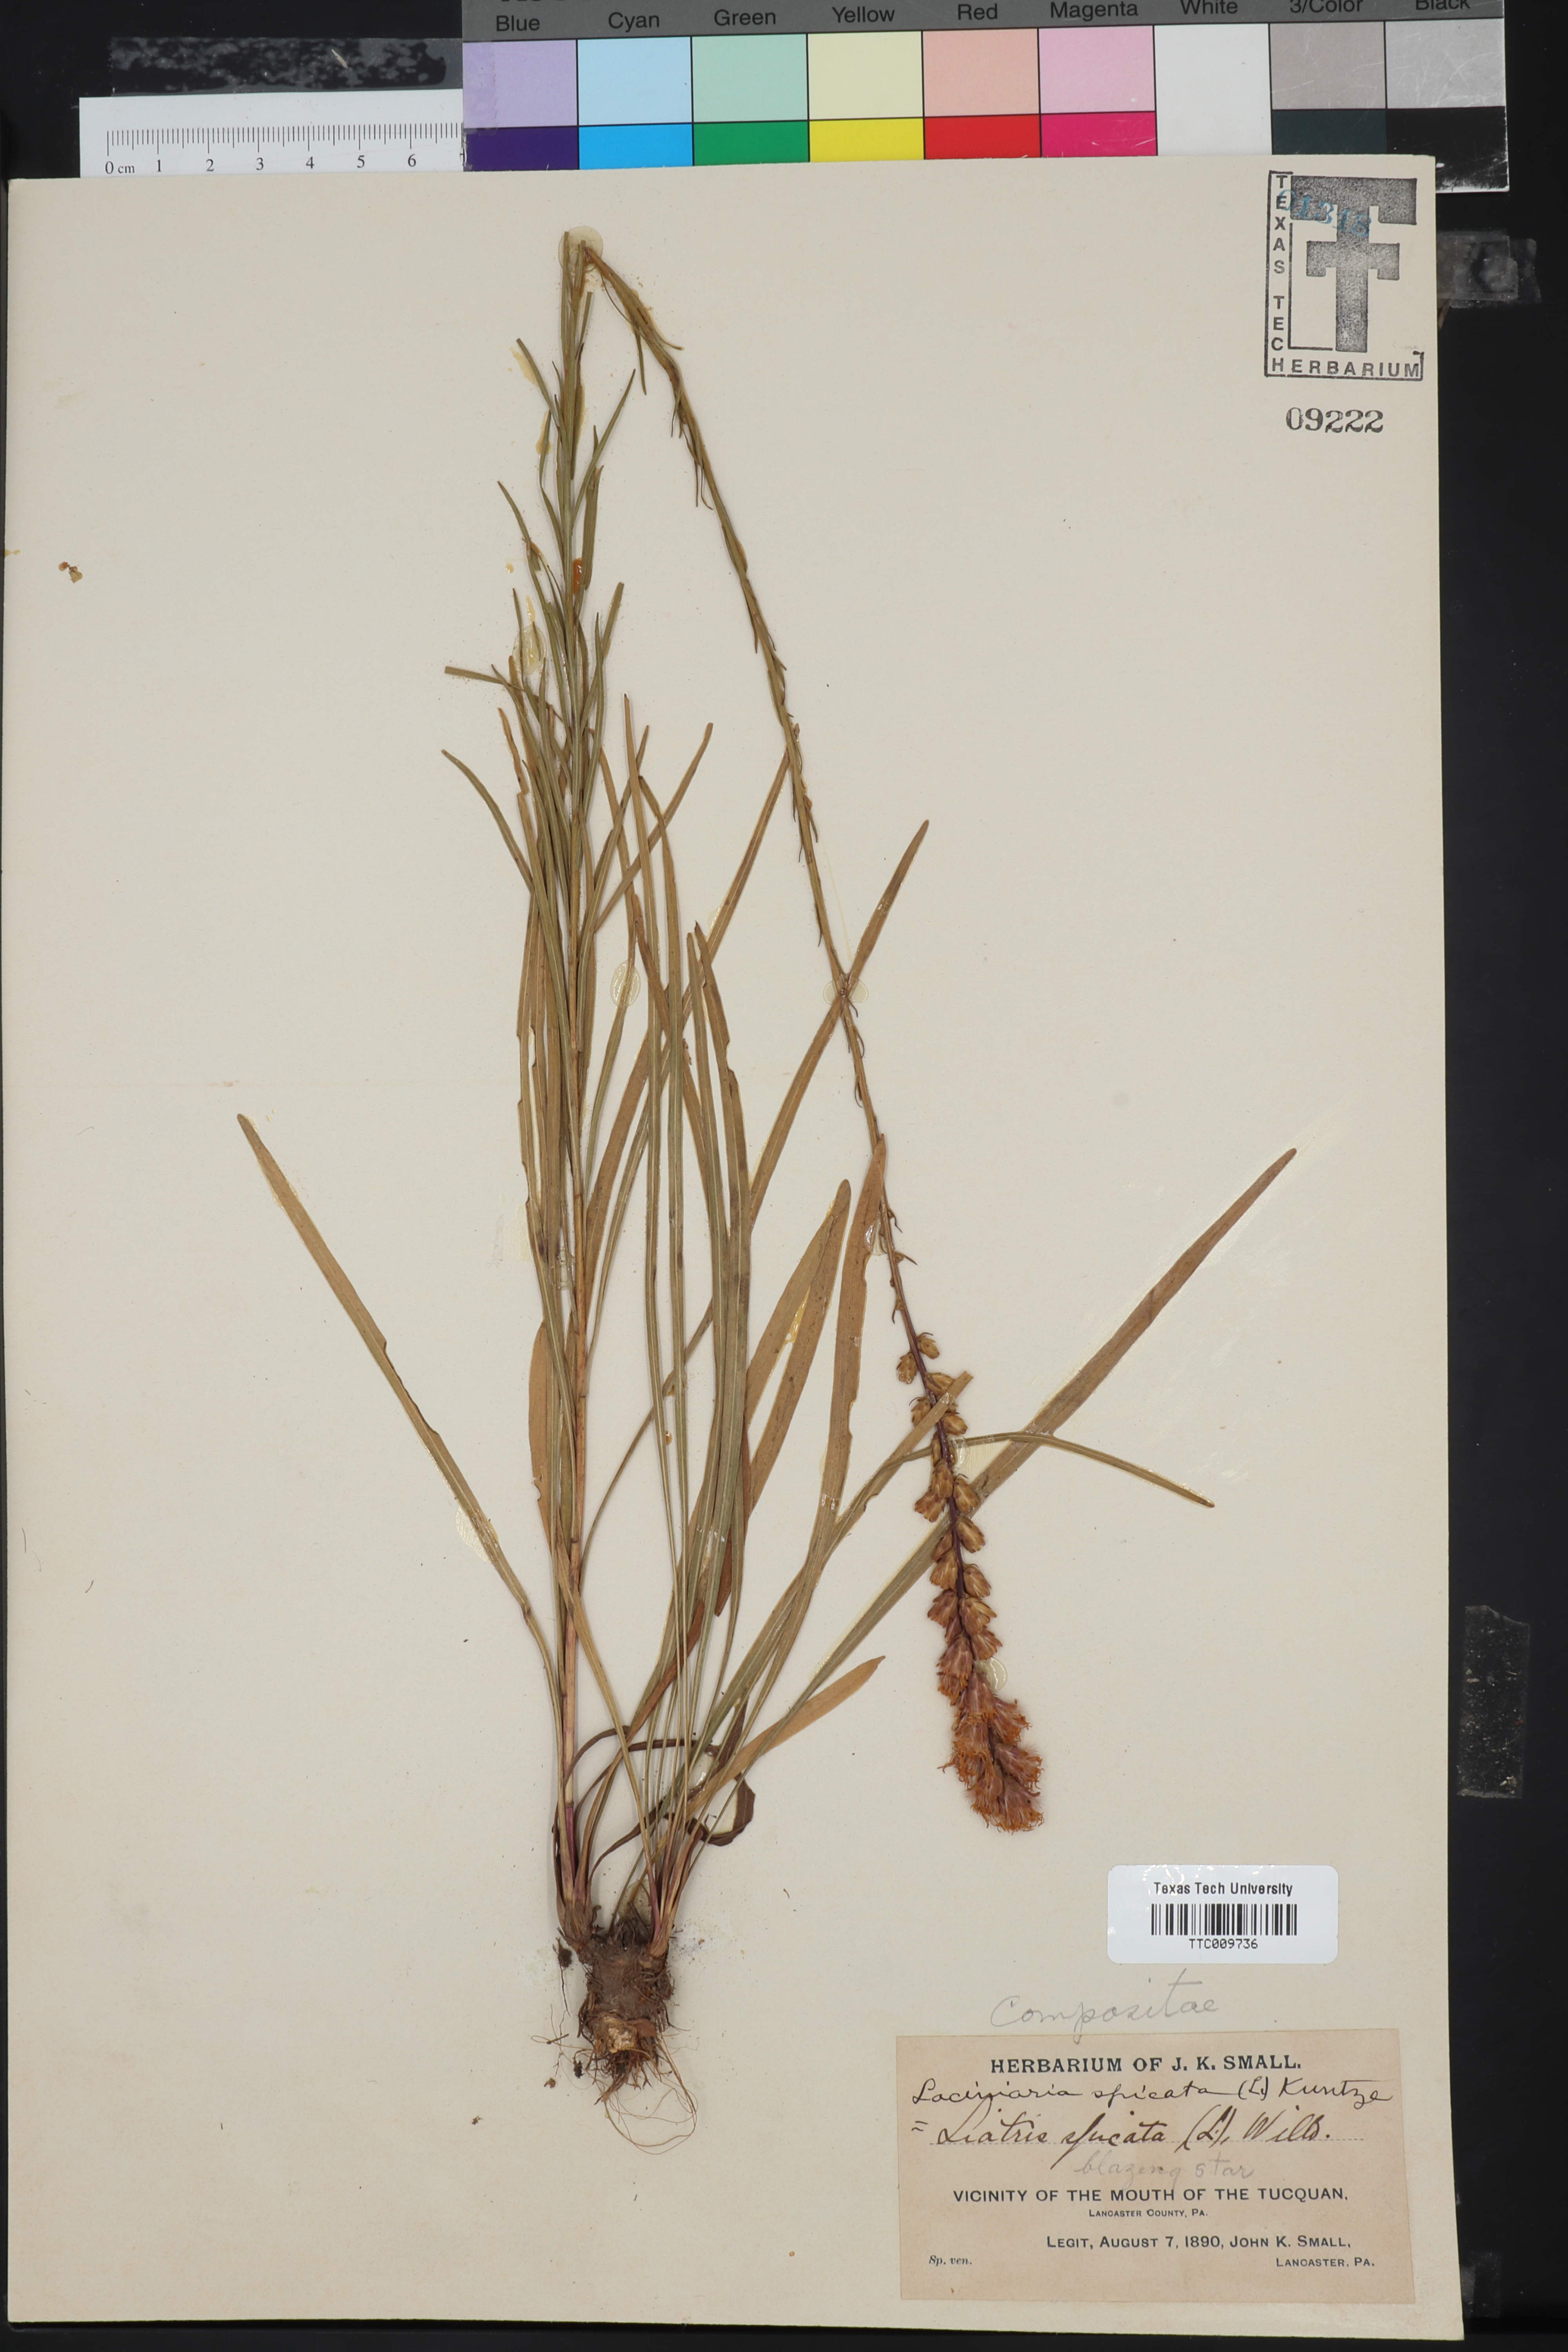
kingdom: Plantae
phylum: Tracheophyta
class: Magnoliopsida
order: Asterales
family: Asteraceae
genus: Liatris
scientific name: Liatris spicata
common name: Florist gayfeather
